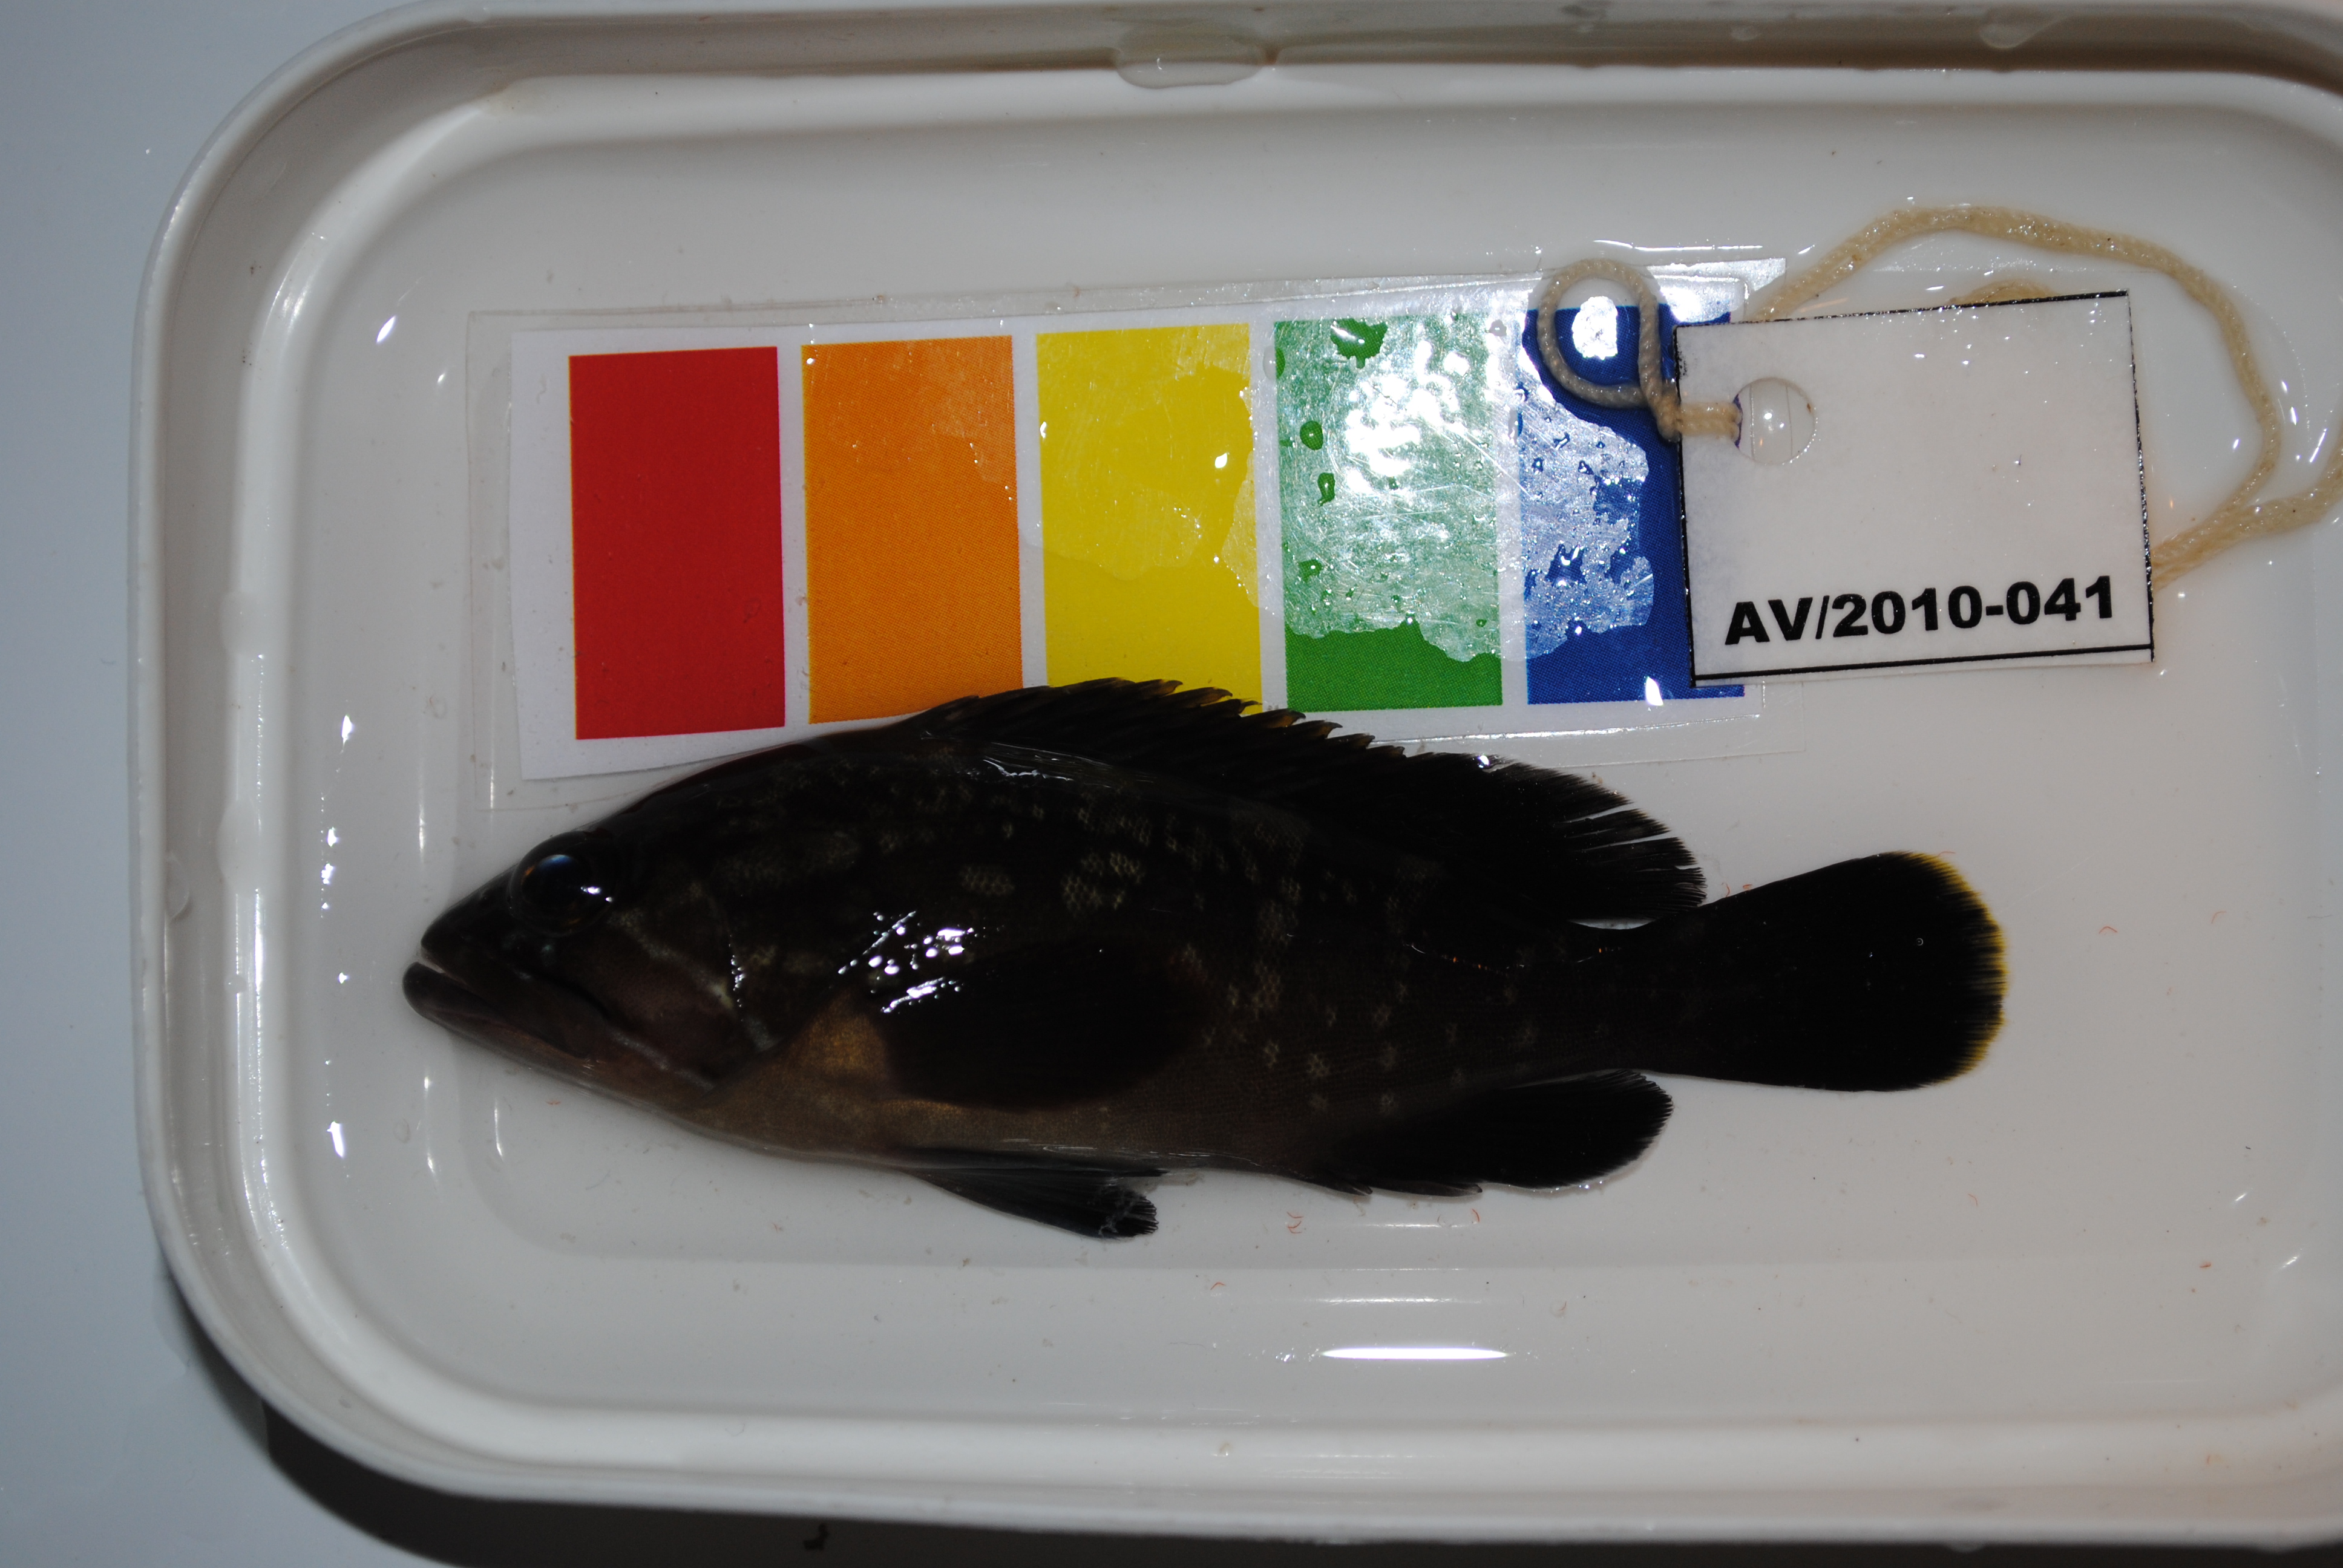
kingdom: Animalia
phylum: Chordata
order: Perciformes
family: Serranidae
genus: Epinephelus
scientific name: Epinephelus marginatus
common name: Dusky grouper
